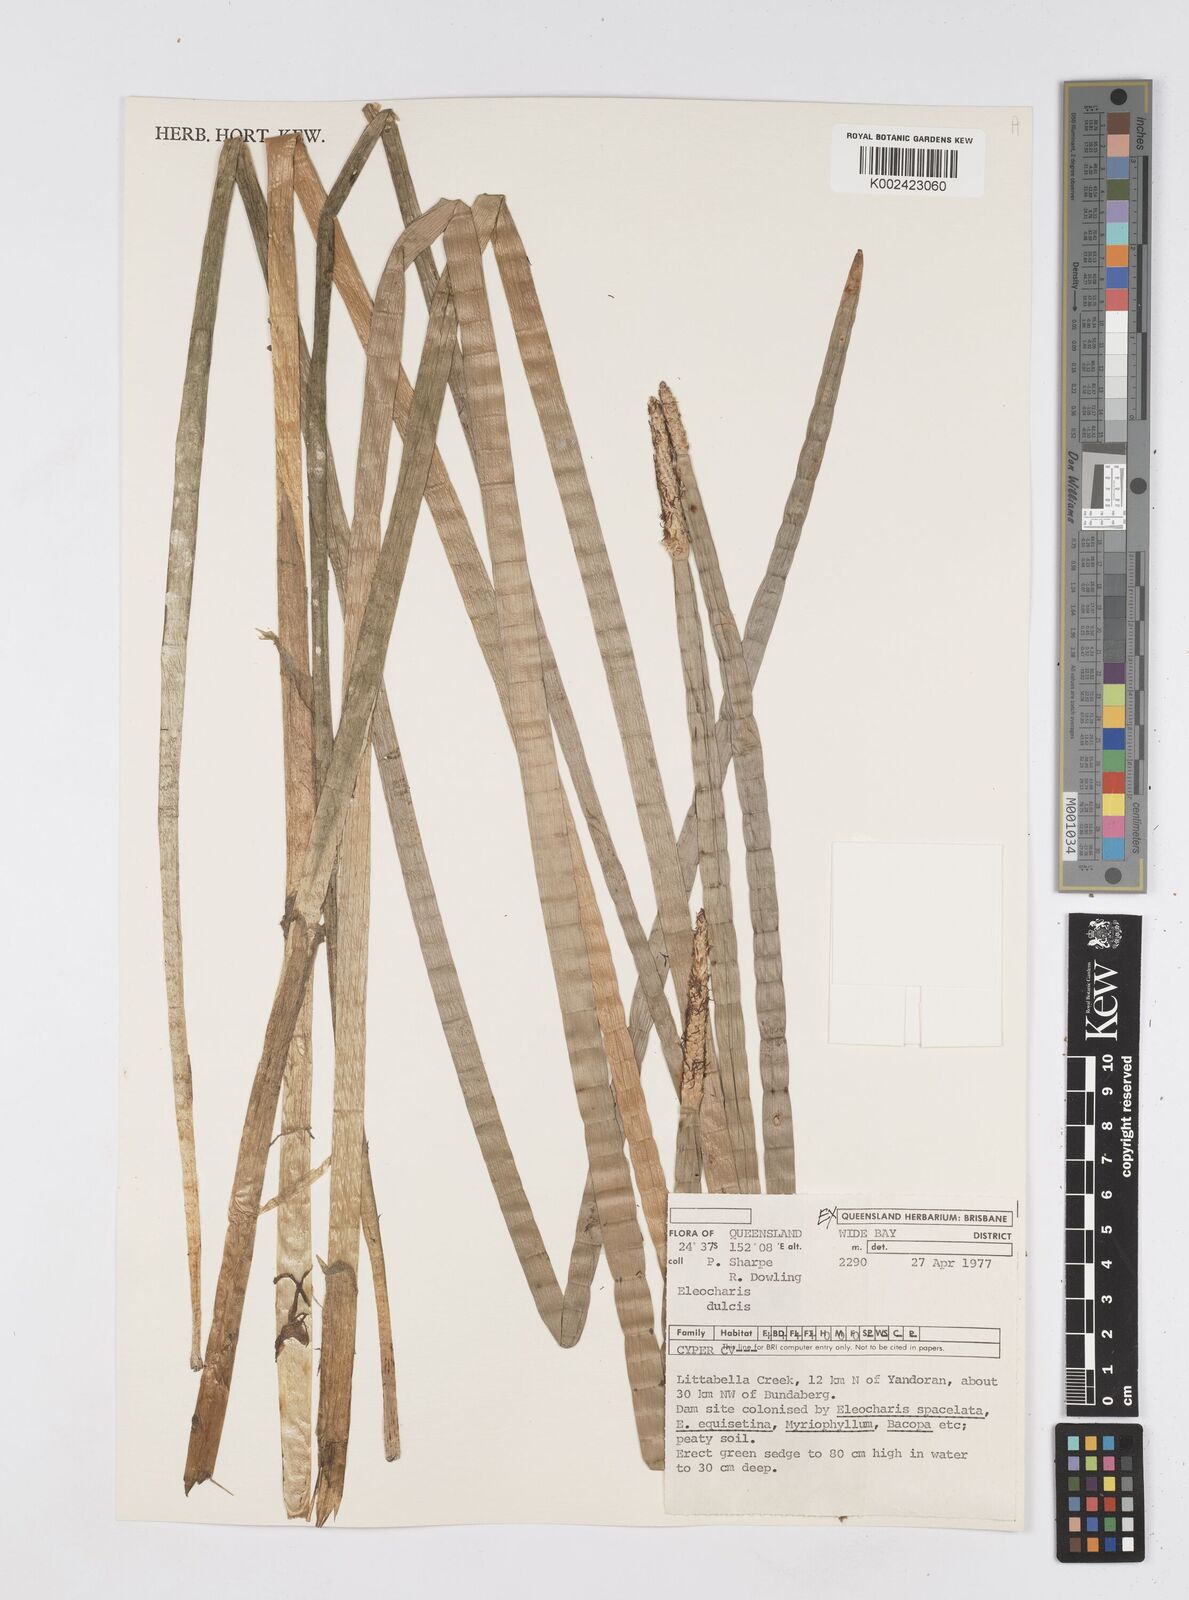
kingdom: Plantae
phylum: Tracheophyta
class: Liliopsida
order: Poales
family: Cyperaceae
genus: Eleocharis
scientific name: Eleocharis dulcis
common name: Chinese water chestnut
